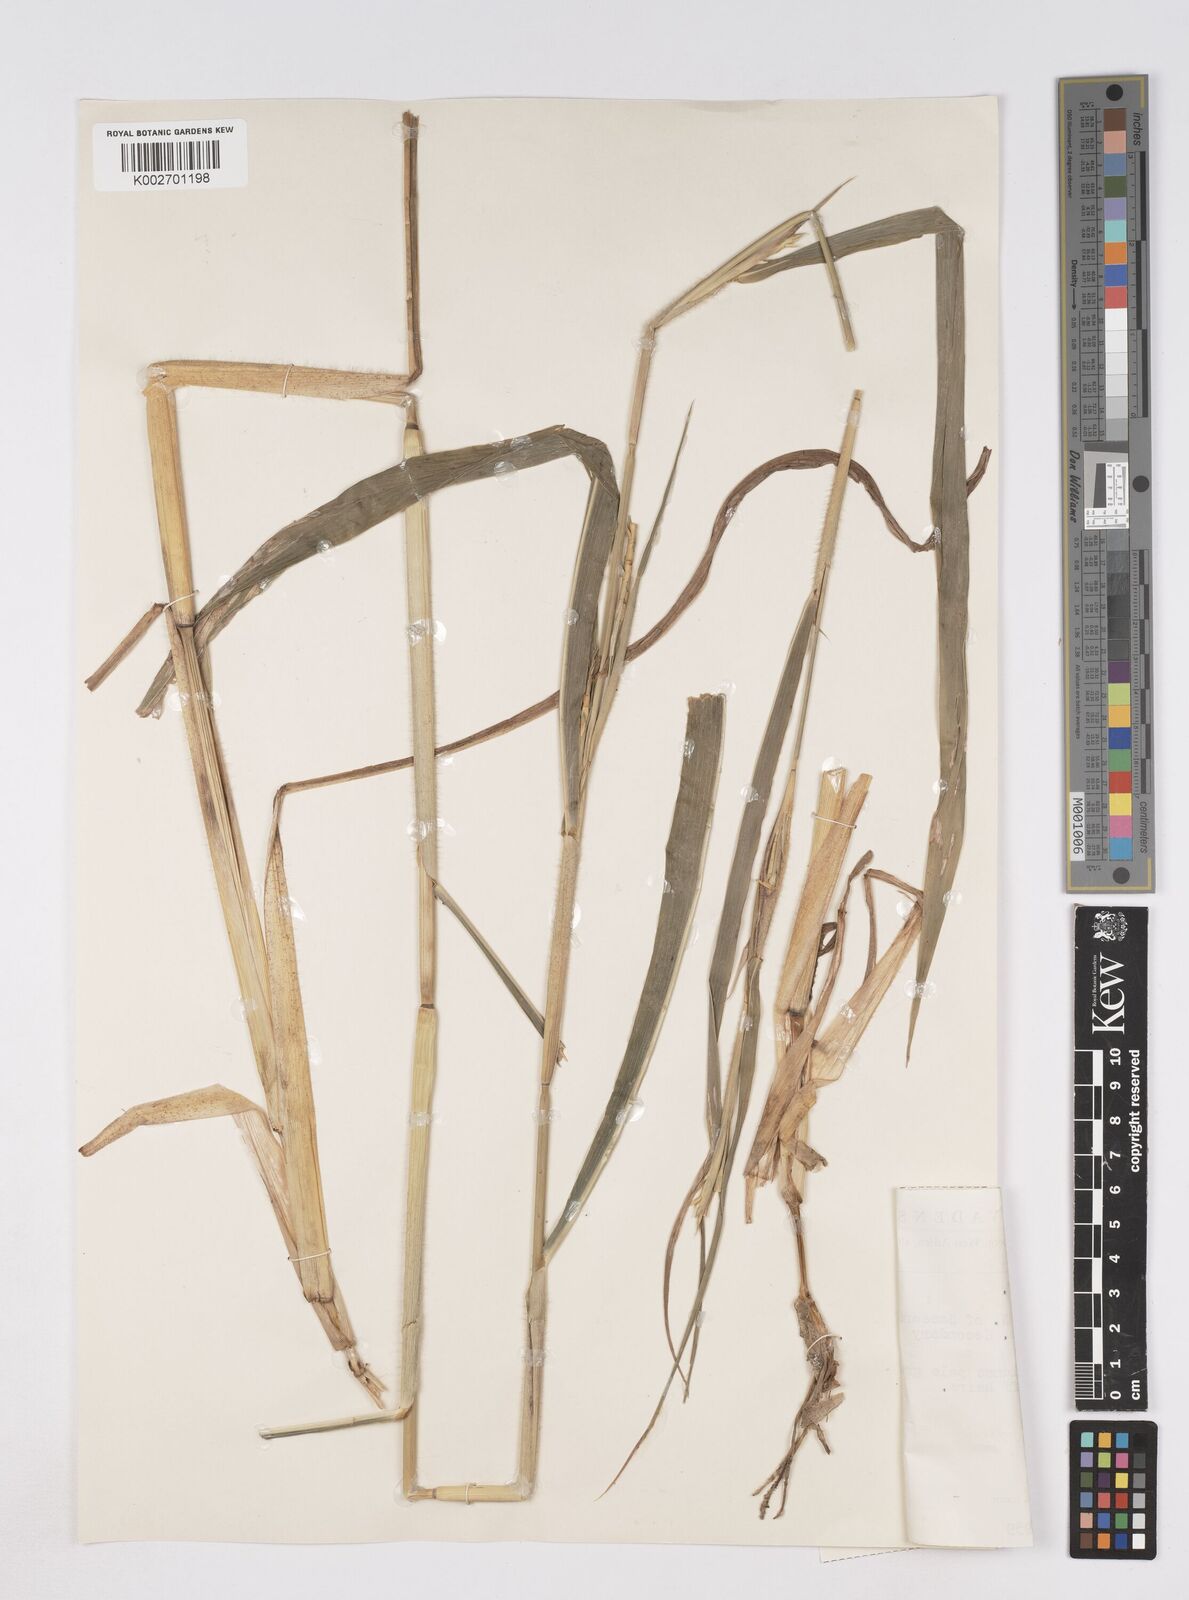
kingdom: Plantae
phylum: Tracheophyta
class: Liliopsida
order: Poales
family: Poaceae
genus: Ophiuros
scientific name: Ophiuros exaltatus
